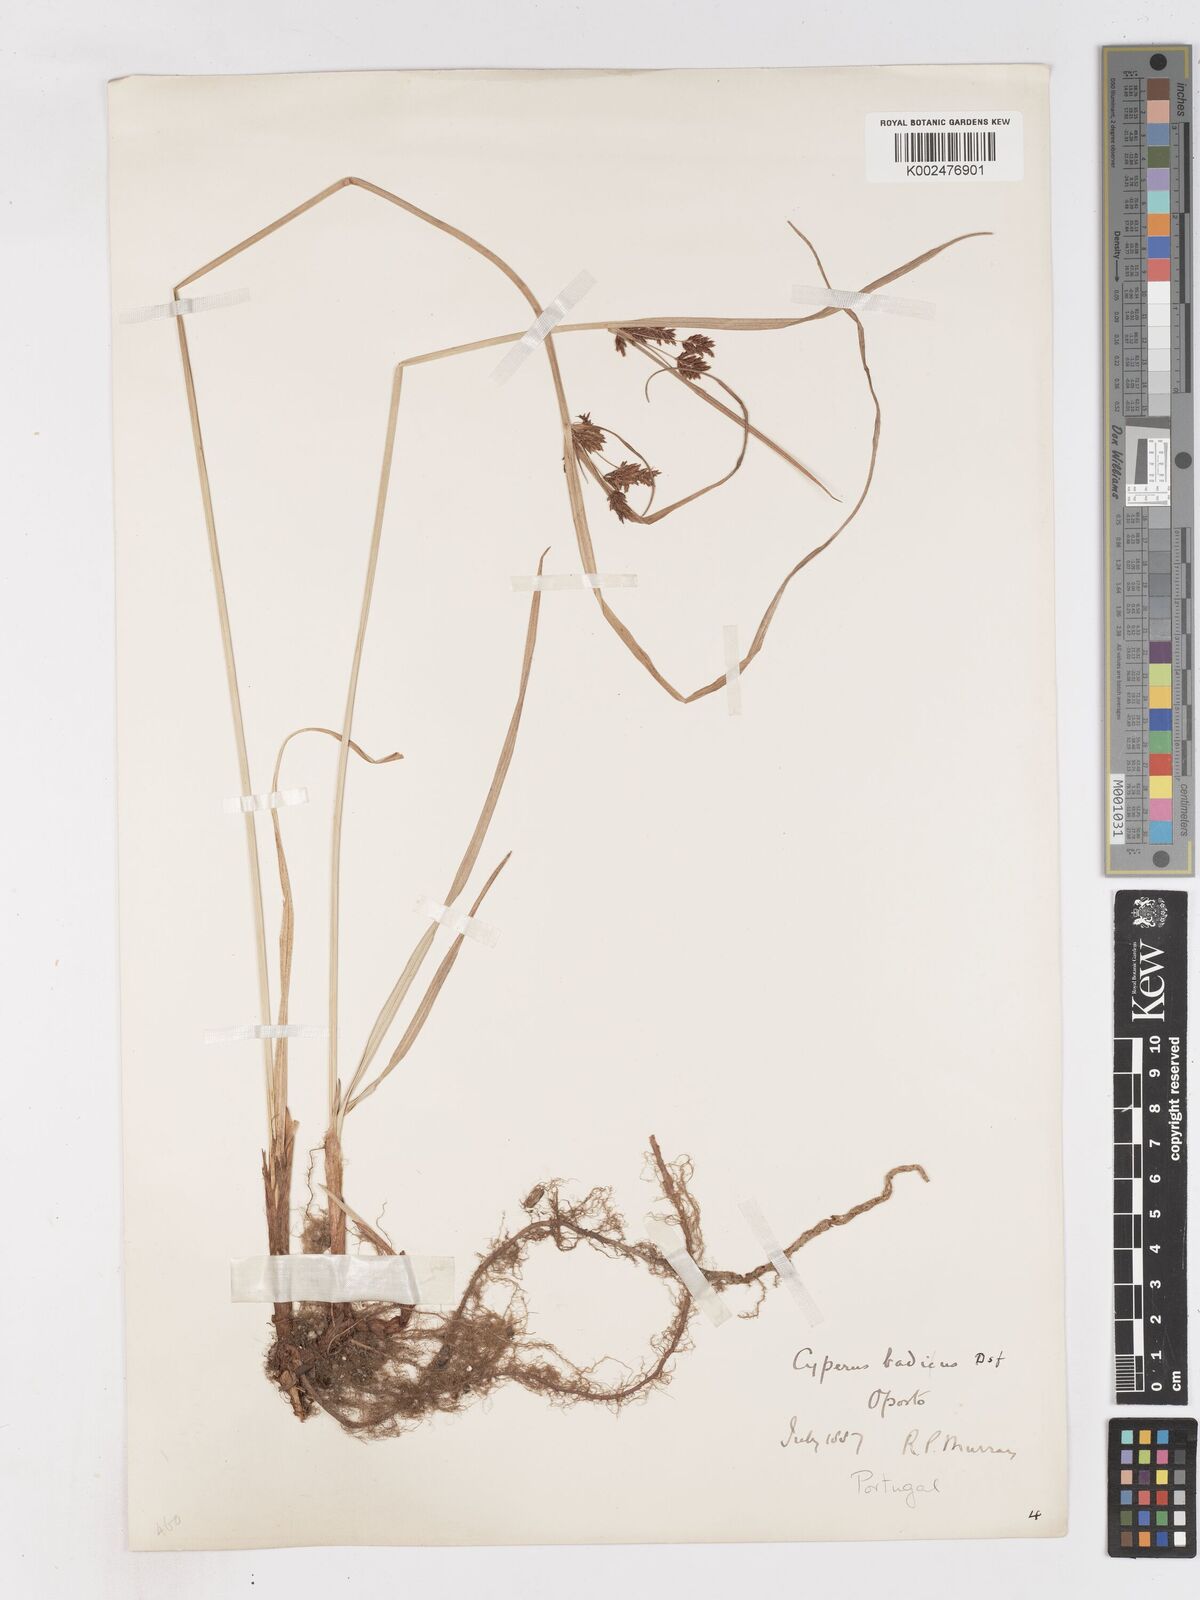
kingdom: Plantae
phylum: Tracheophyta
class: Liliopsida
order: Poales
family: Cyperaceae
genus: Cyperus
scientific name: Cyperus longus
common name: Galingale
